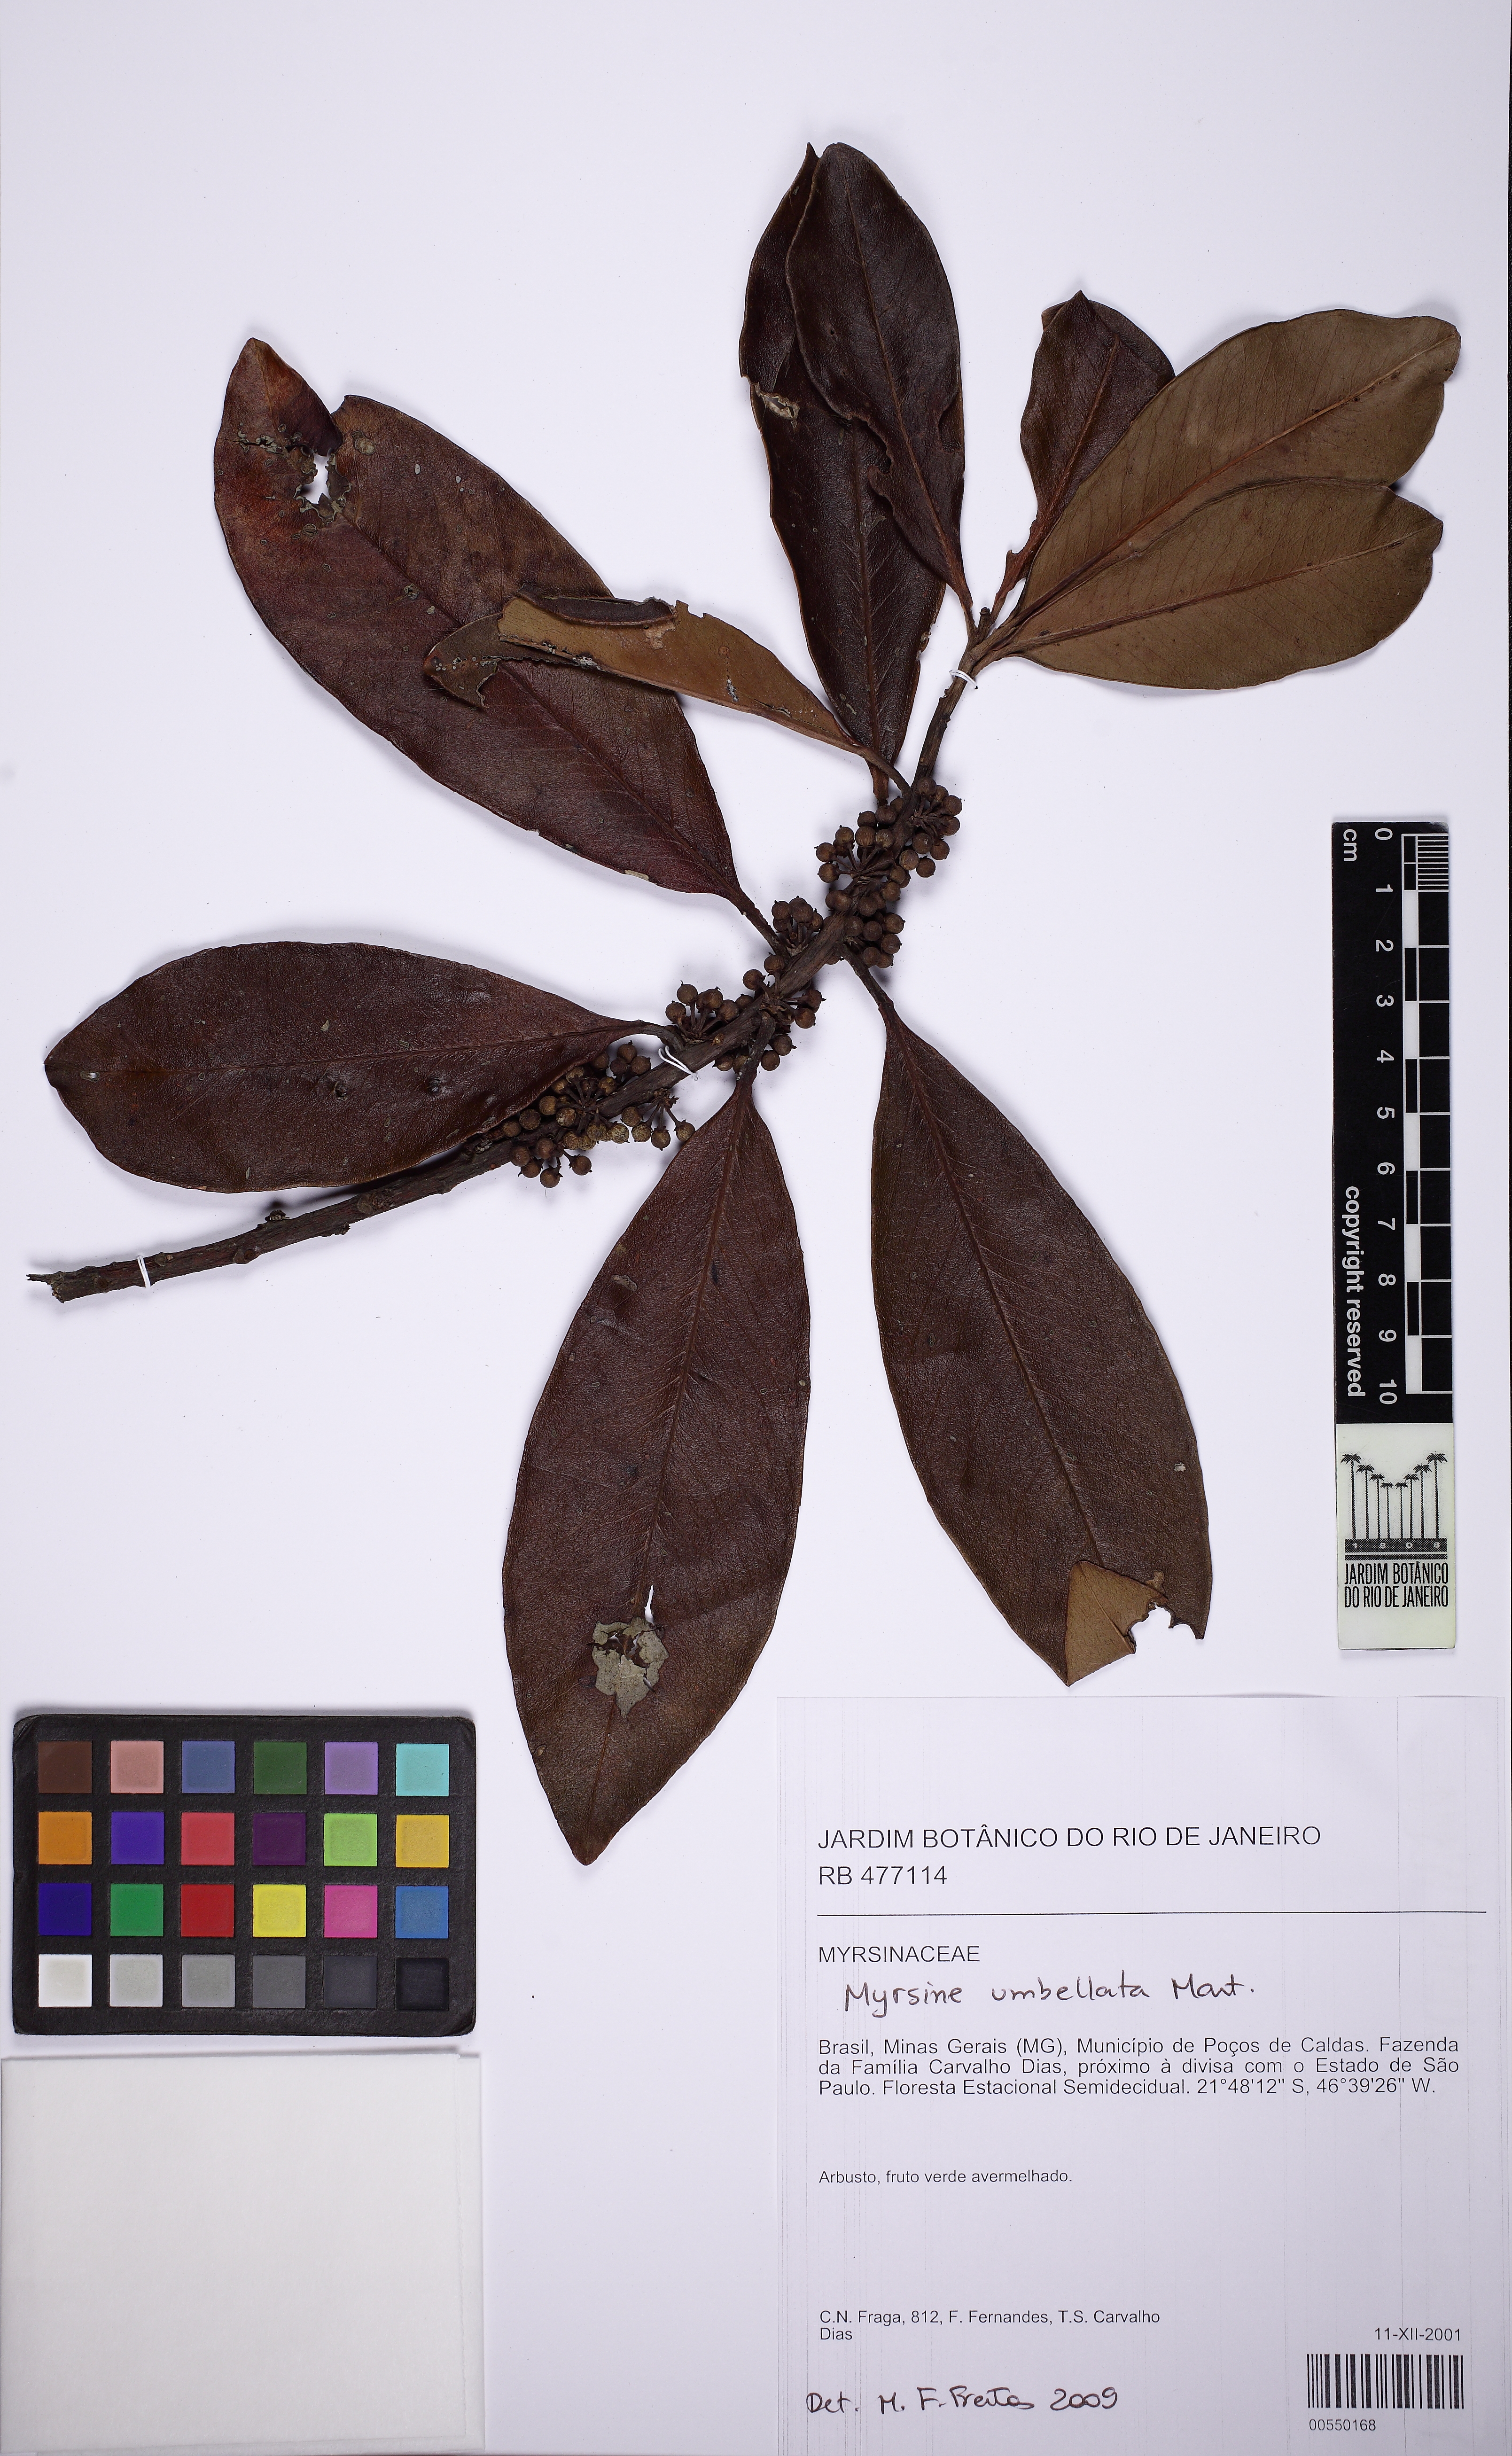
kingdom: Plantae
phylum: Tracheophyta
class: Magnoliopsida
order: Ericales
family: Primulaceae
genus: Myrsine
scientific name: Myrsine umbellata
